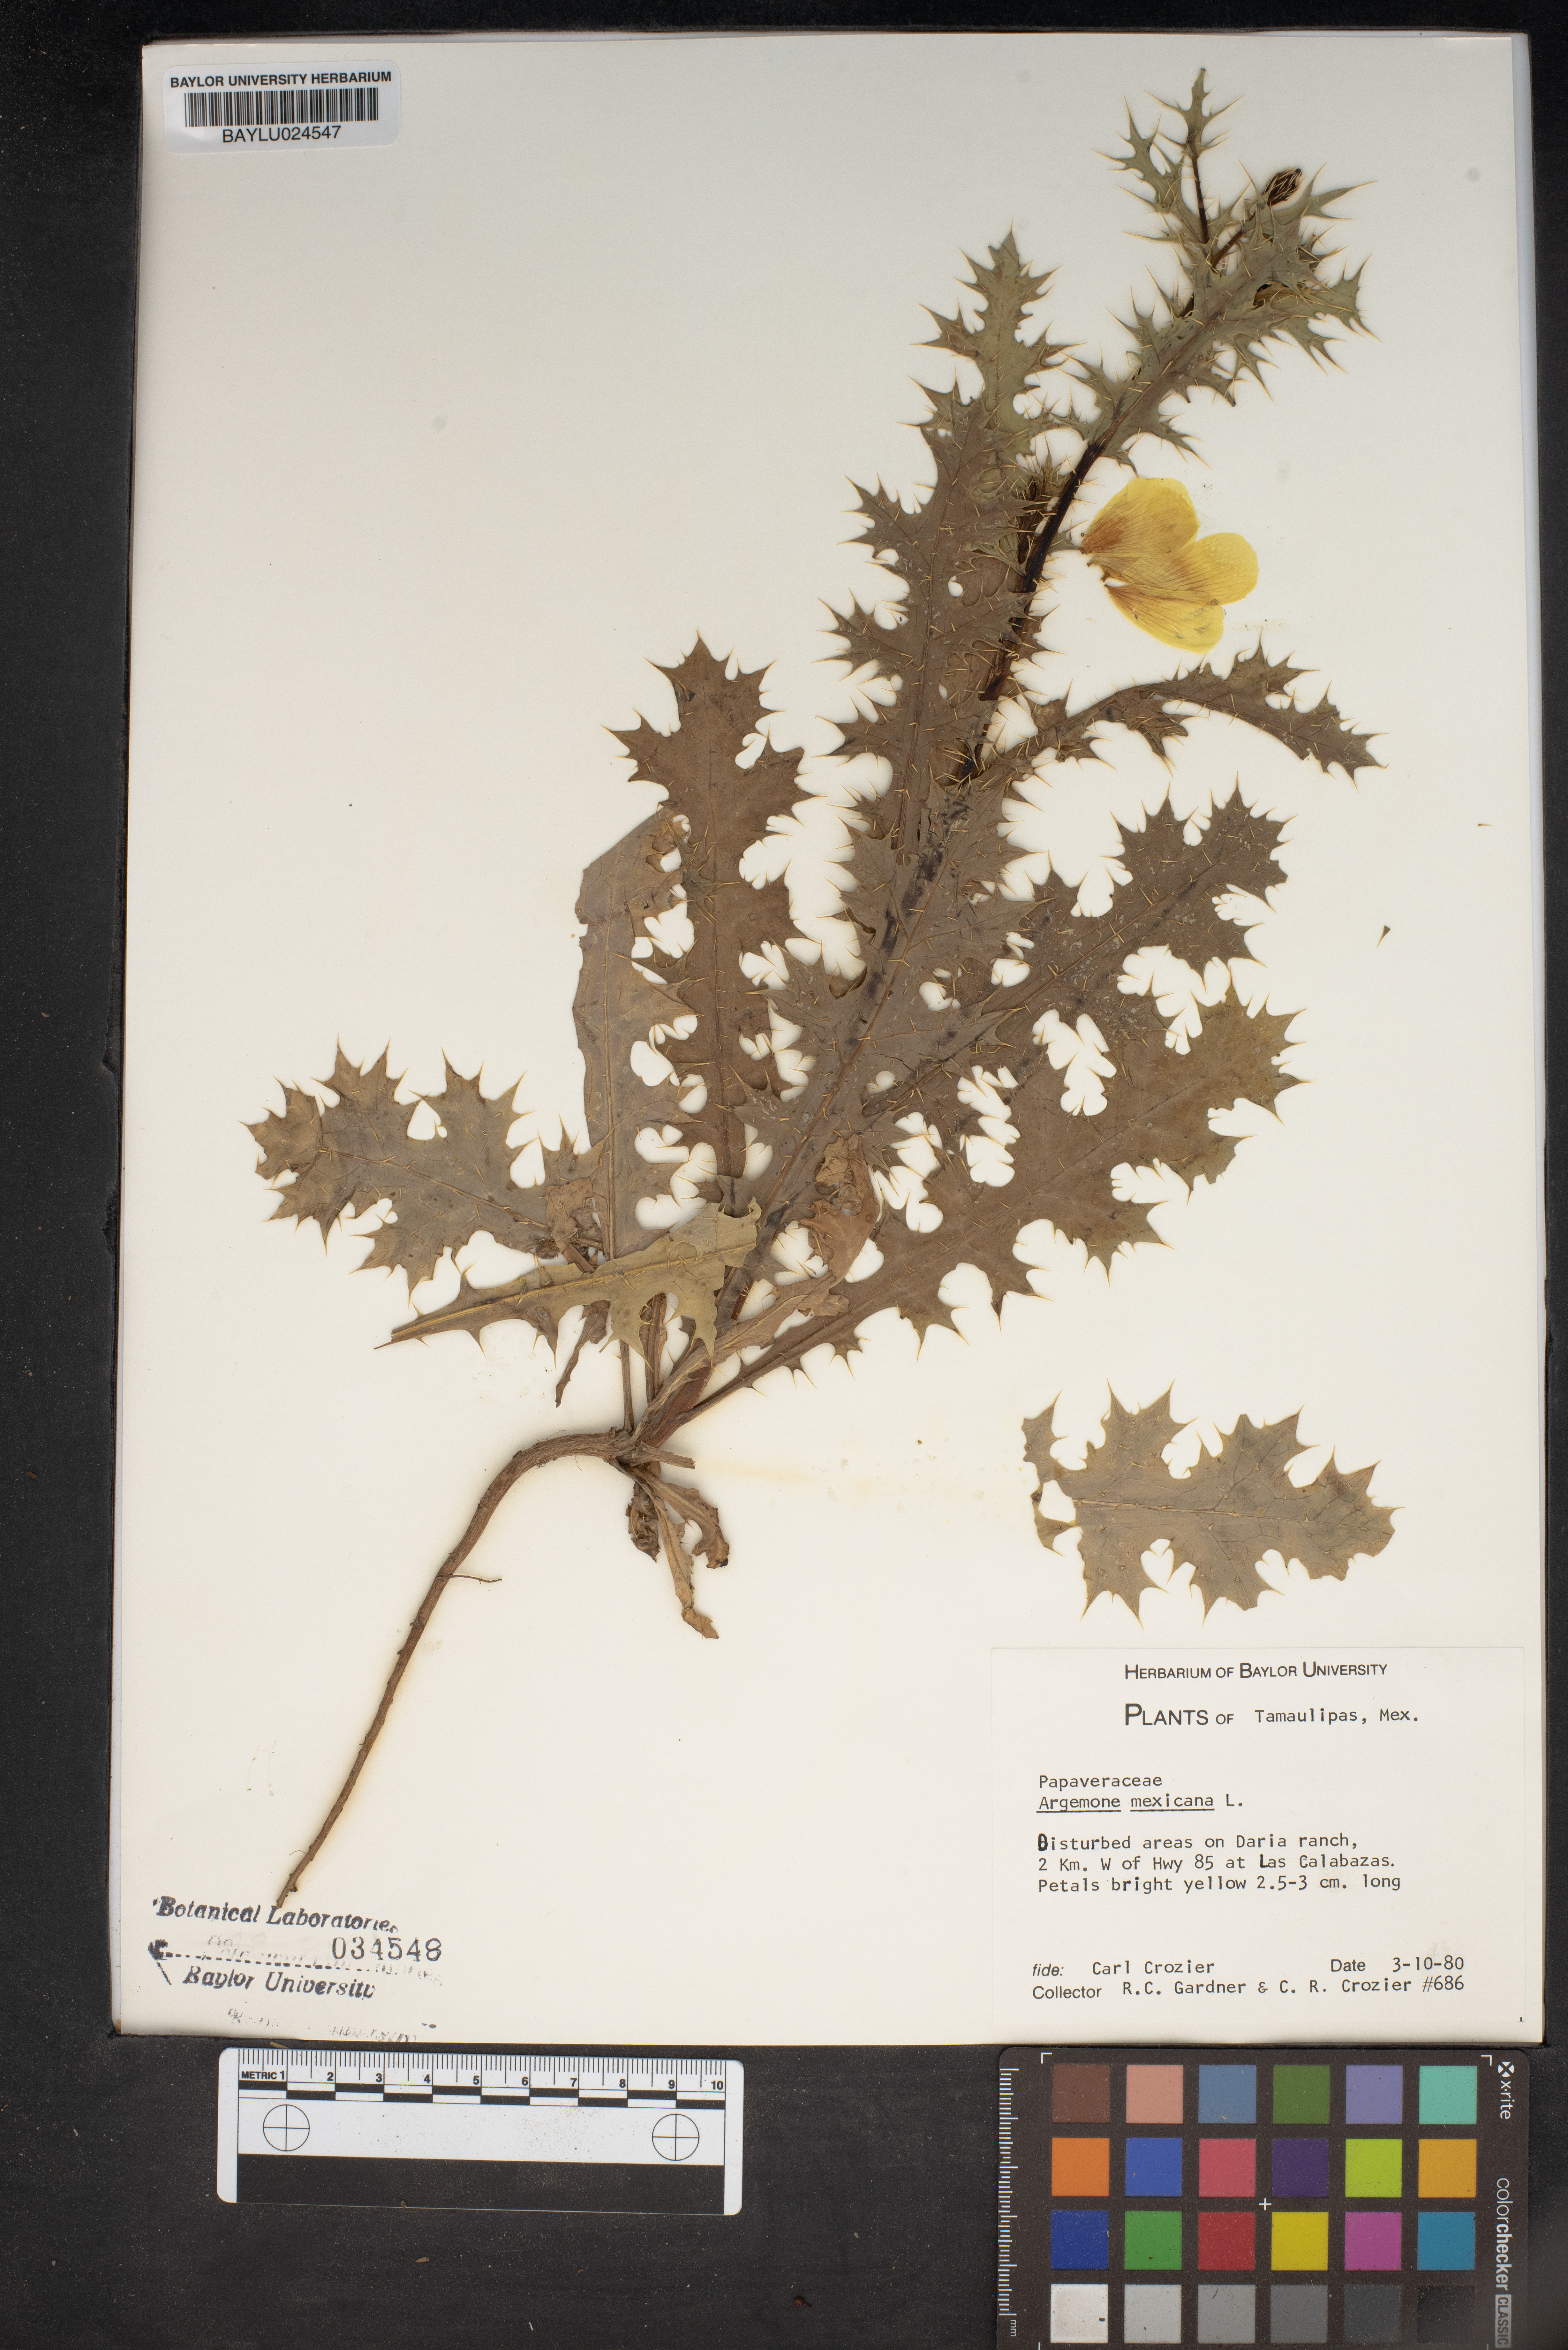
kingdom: Plantae
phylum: Tracheophyta
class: Magnoliopsida
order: Ranunculales
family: Papaveraceae
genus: Argemone
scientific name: Argemone mexicana
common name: Mexican poppy
